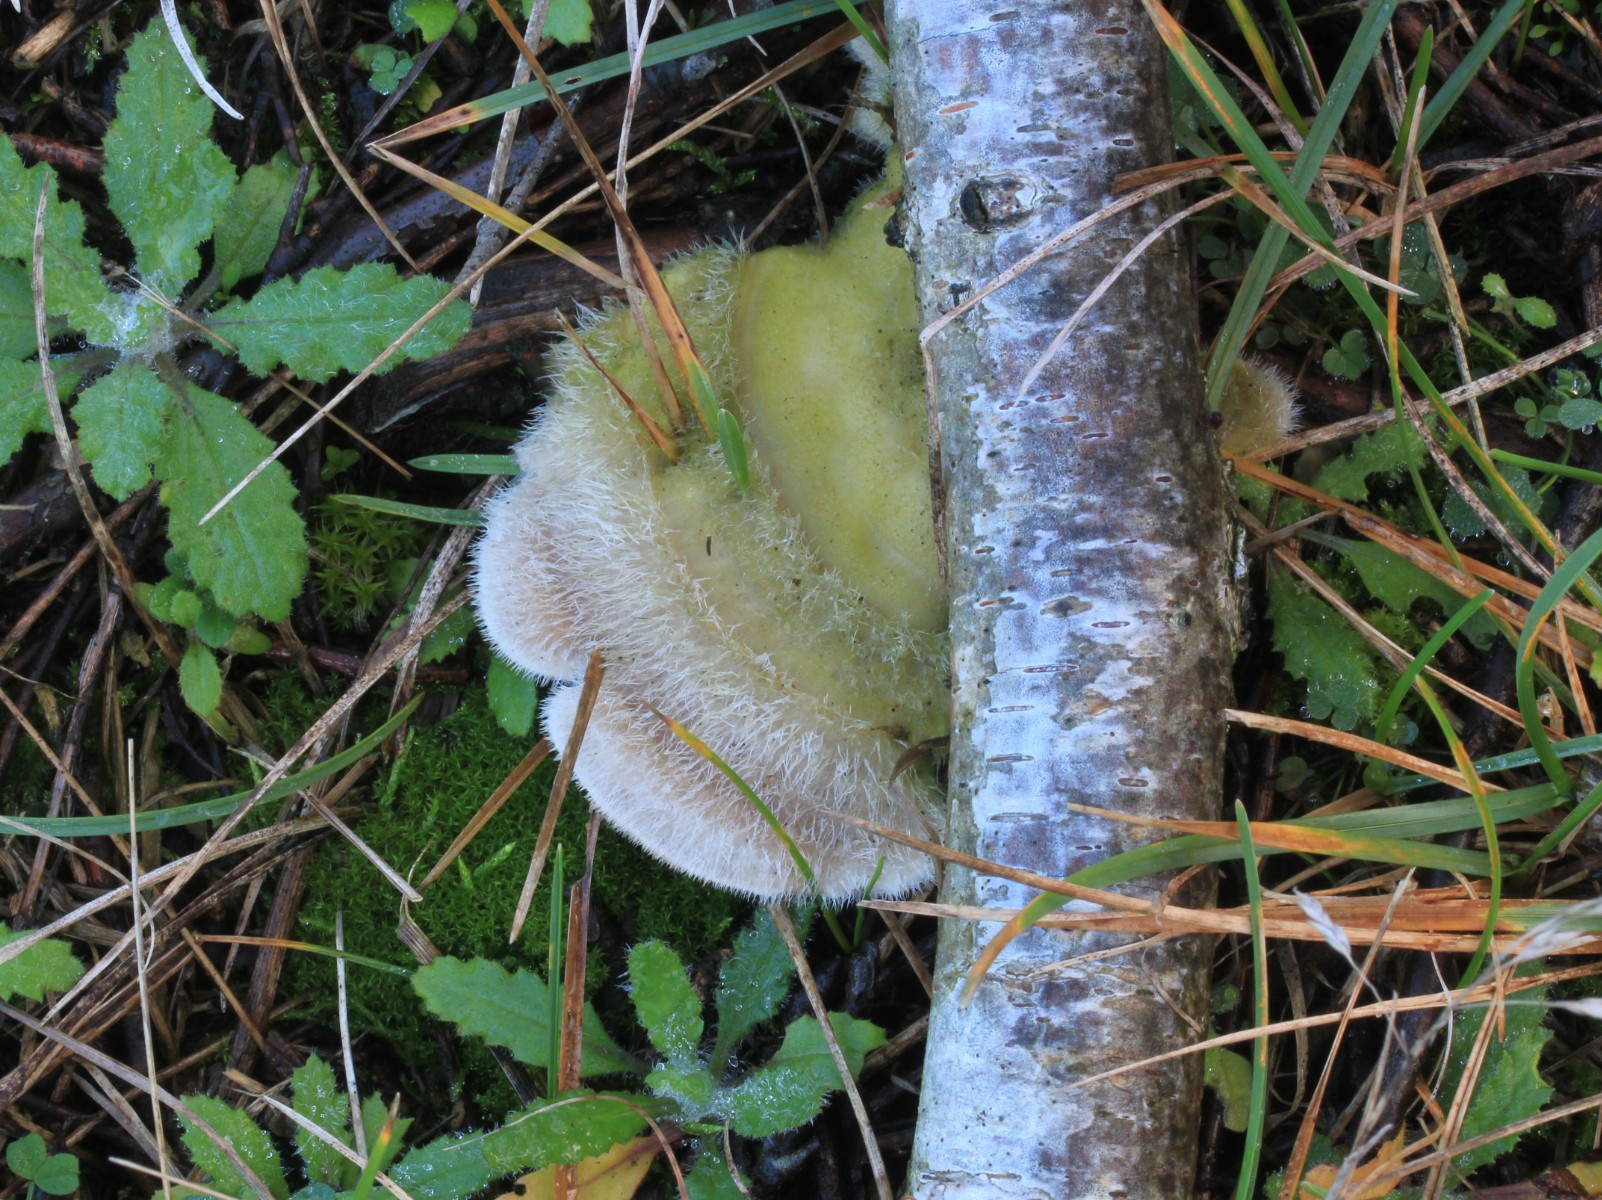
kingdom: Fungi
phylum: Basidiomycota
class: Agaricomycetes
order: Polyporales
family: Polyporaceae
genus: Trametes
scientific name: Trametes hirsuta
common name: håret læderporesvamp
